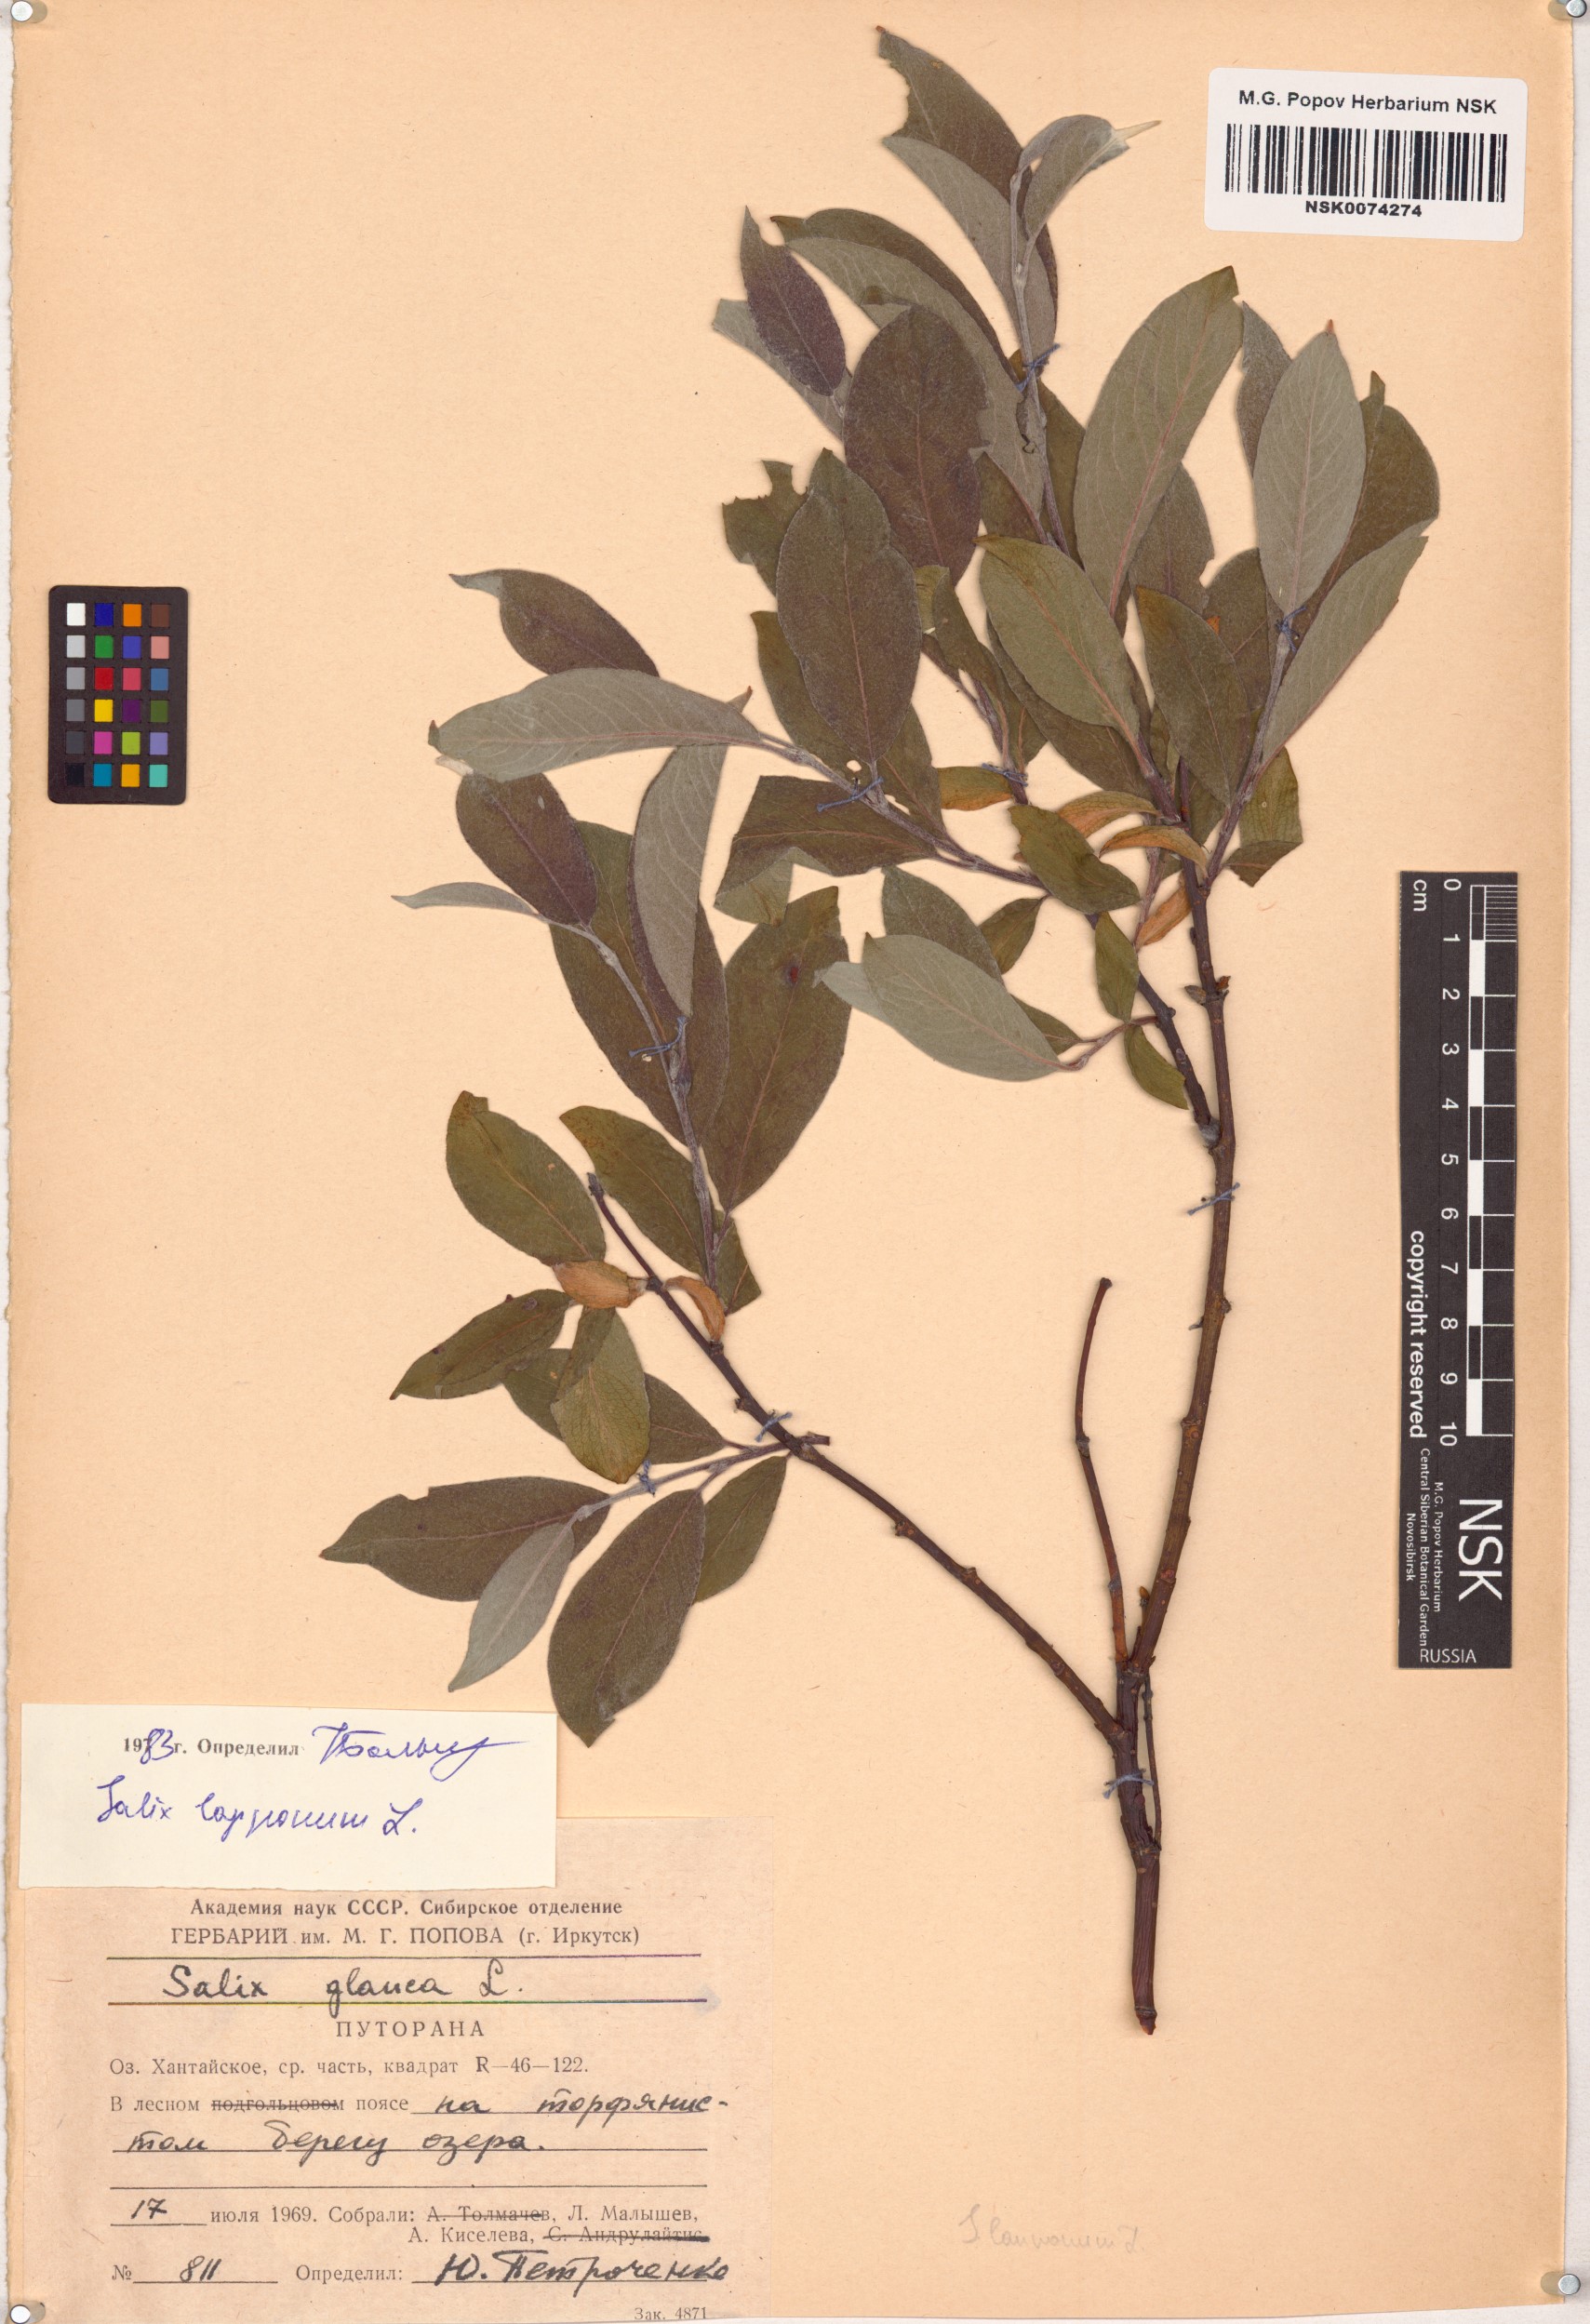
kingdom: Plantae
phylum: Tracheophyta
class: Magnoliopsida
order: Malpighiales
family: Salicaceae
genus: Salix
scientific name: Salix lapponum
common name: Downy willow
